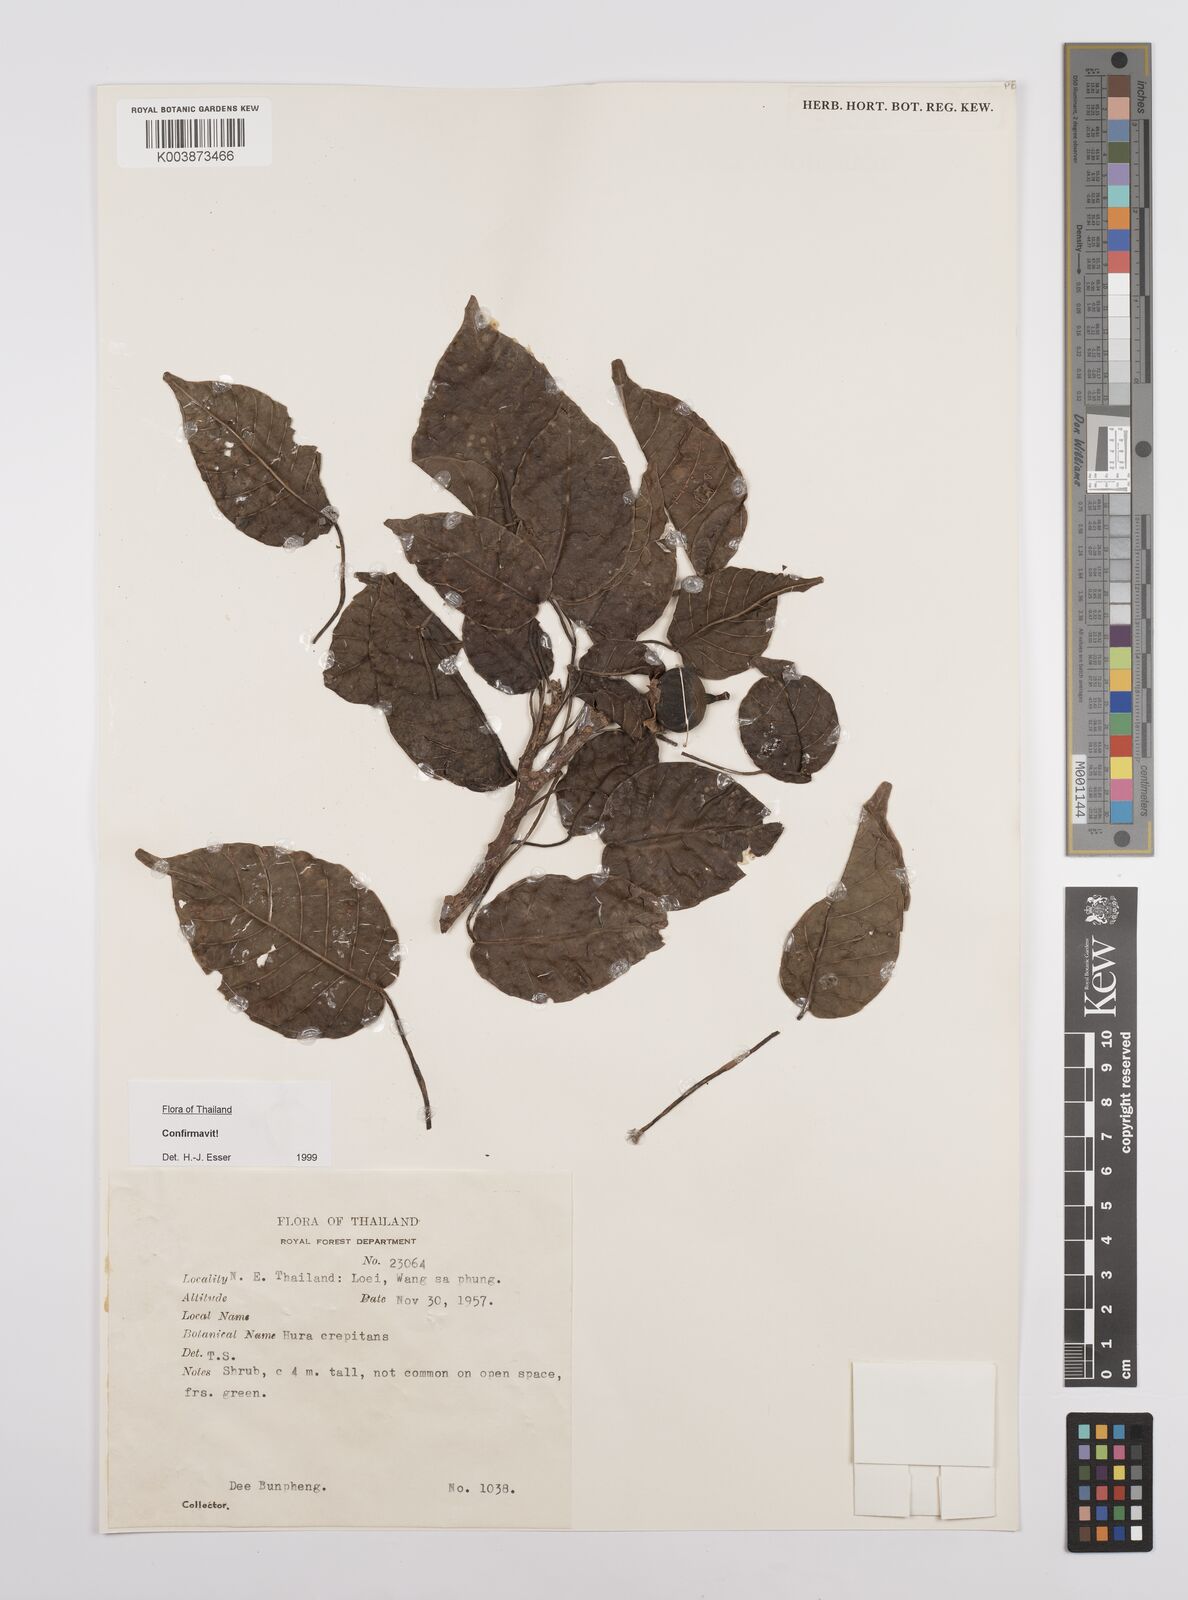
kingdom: Plantae
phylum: Tracheophyta
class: Magnoliopsida
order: Malpighiales
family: Euphorbiaceae
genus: Hura
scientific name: Hura crepitans
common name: Sandboxtree
